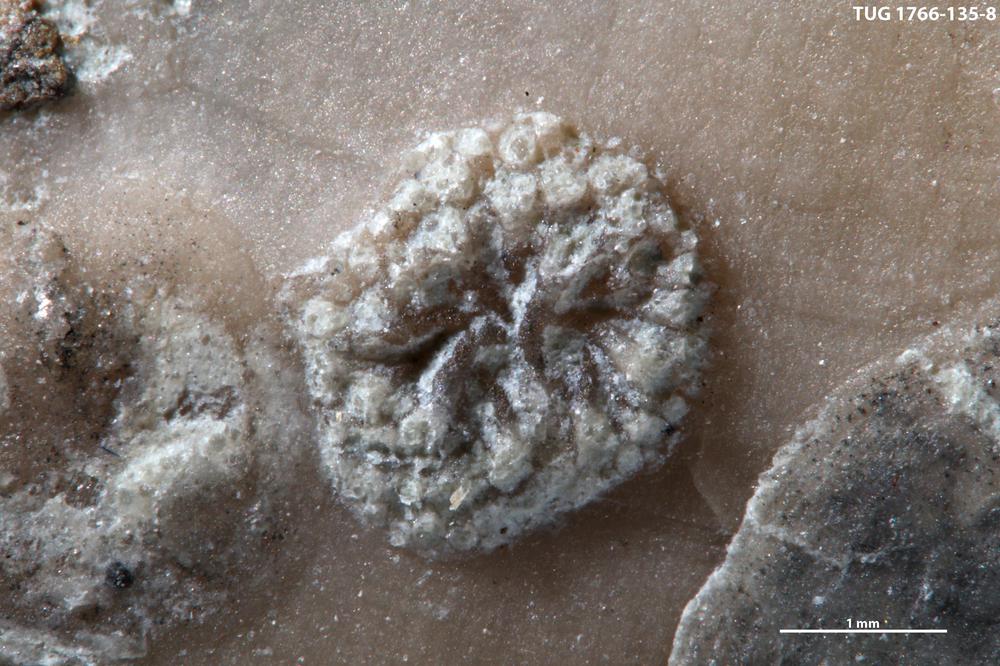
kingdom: Animalia
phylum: Bryozoa
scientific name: Bryozoa
